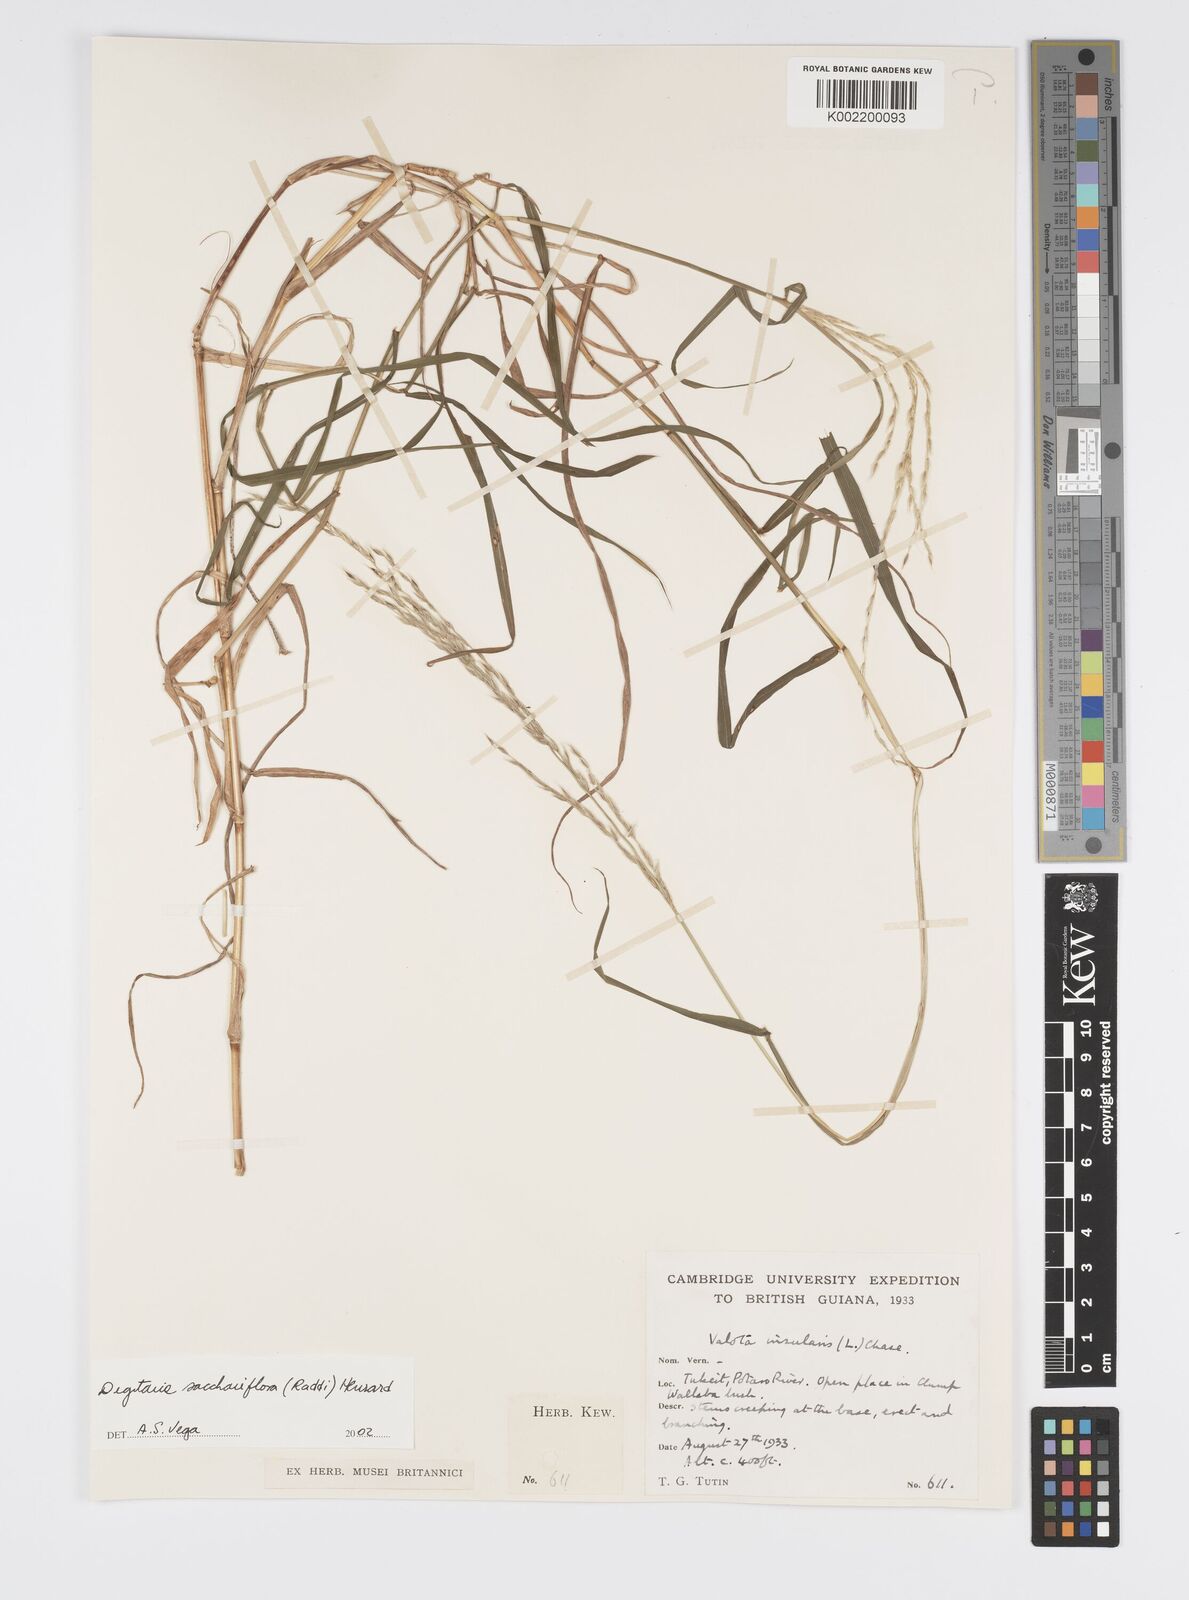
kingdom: Plantae
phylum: Tracheophyta
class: Liliopsida
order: Poales
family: Poaceae
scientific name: Poaceae
